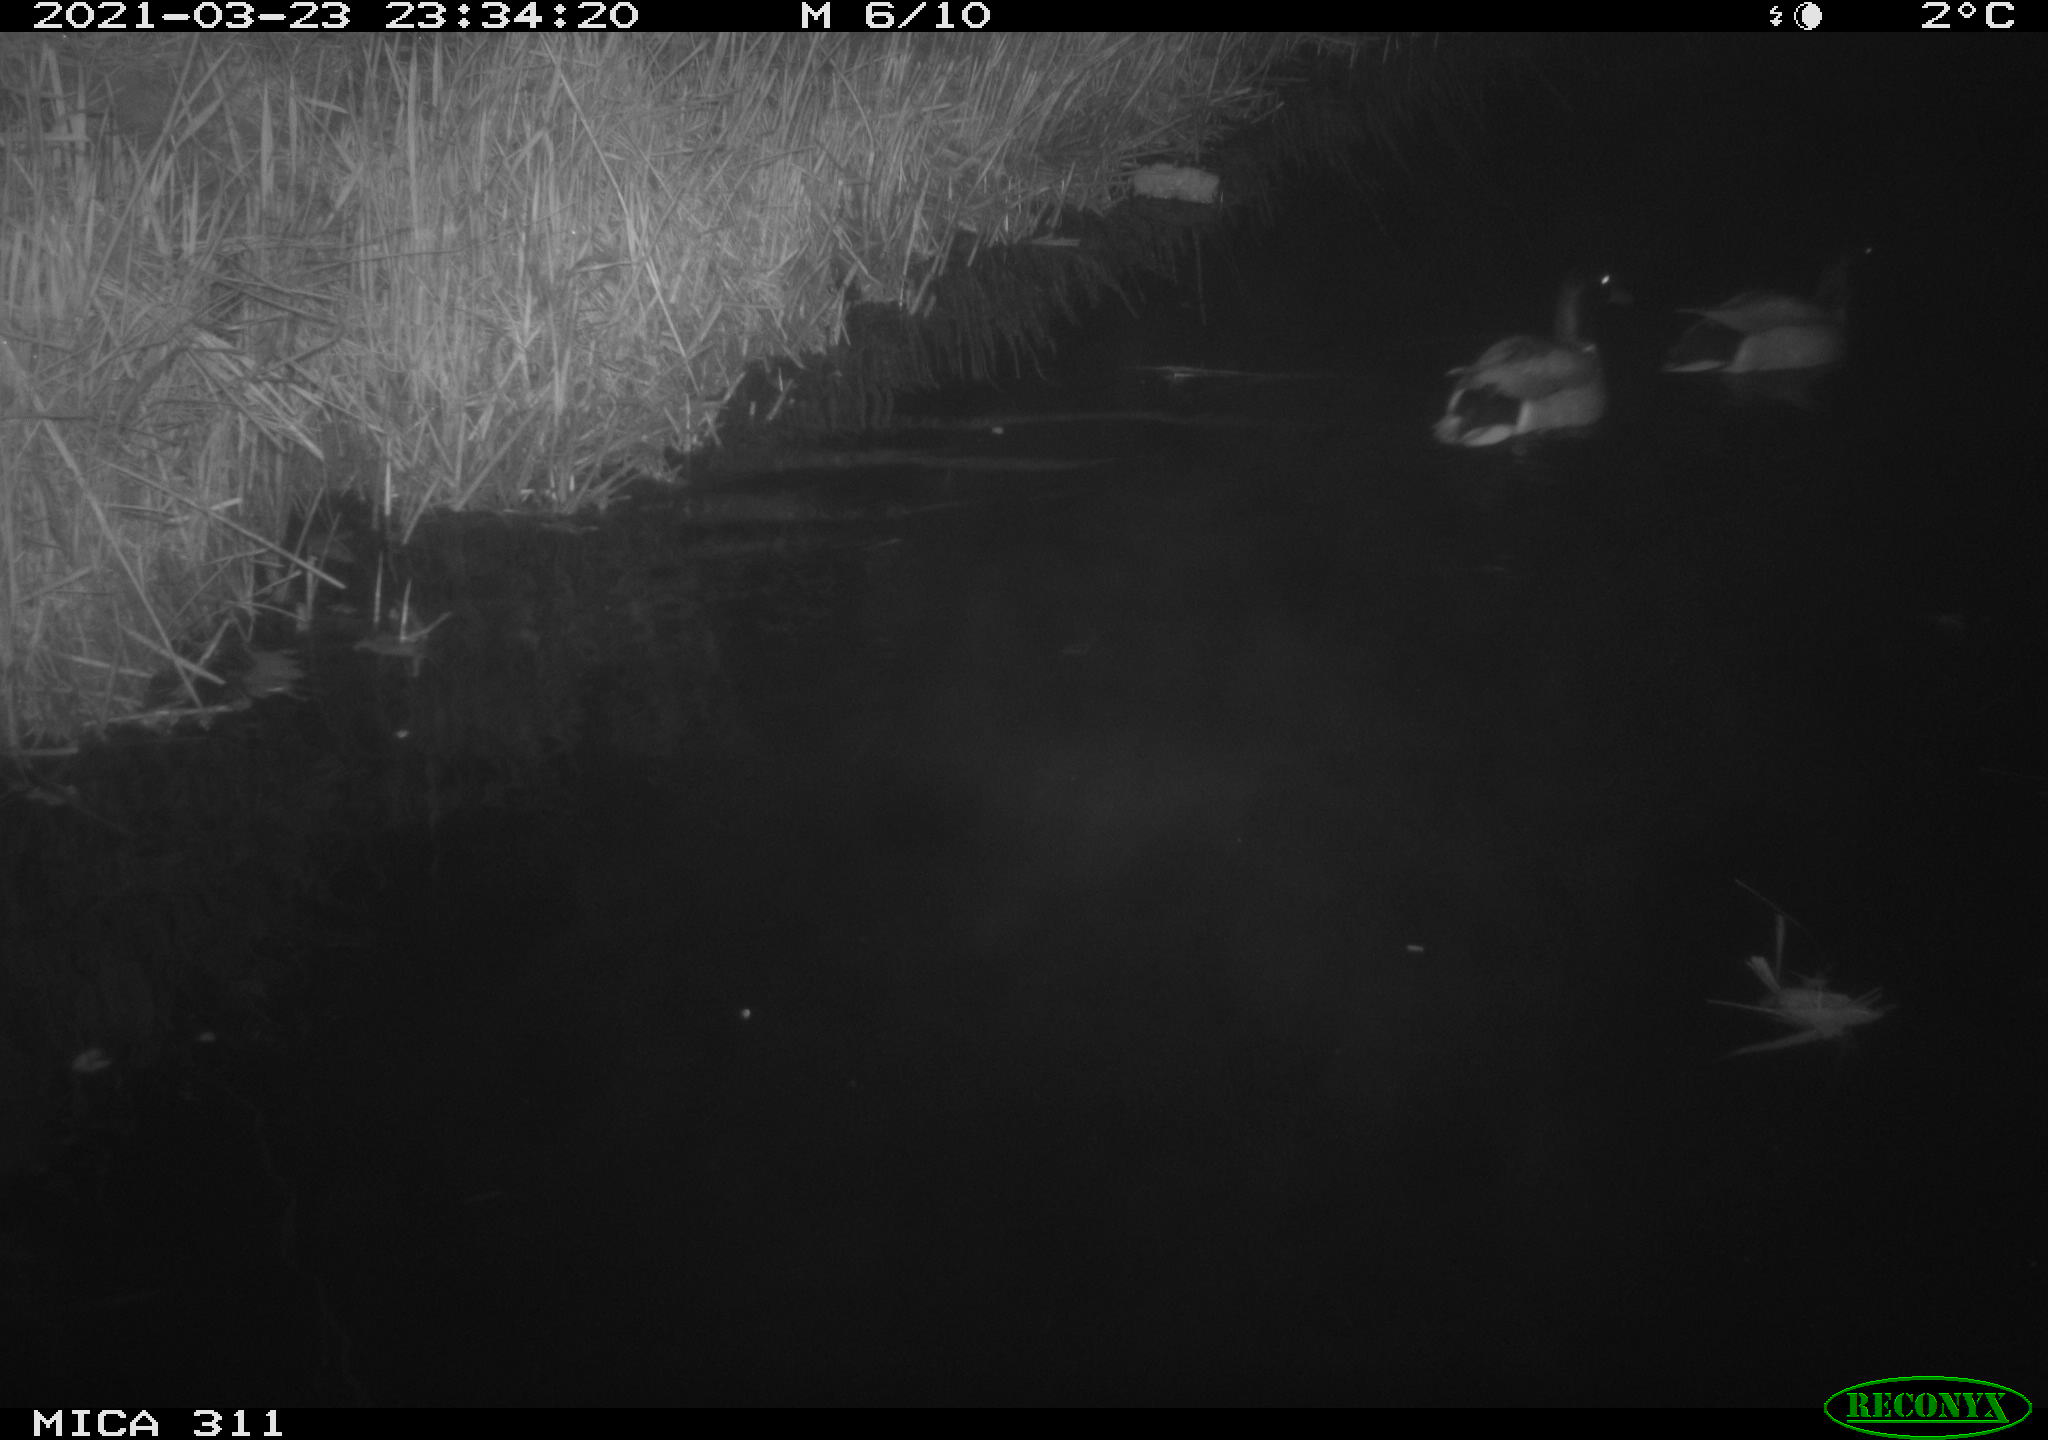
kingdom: Animalia
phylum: Chordata
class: Aves
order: Anseriformes
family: Anatidae
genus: Anas
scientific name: Anas
